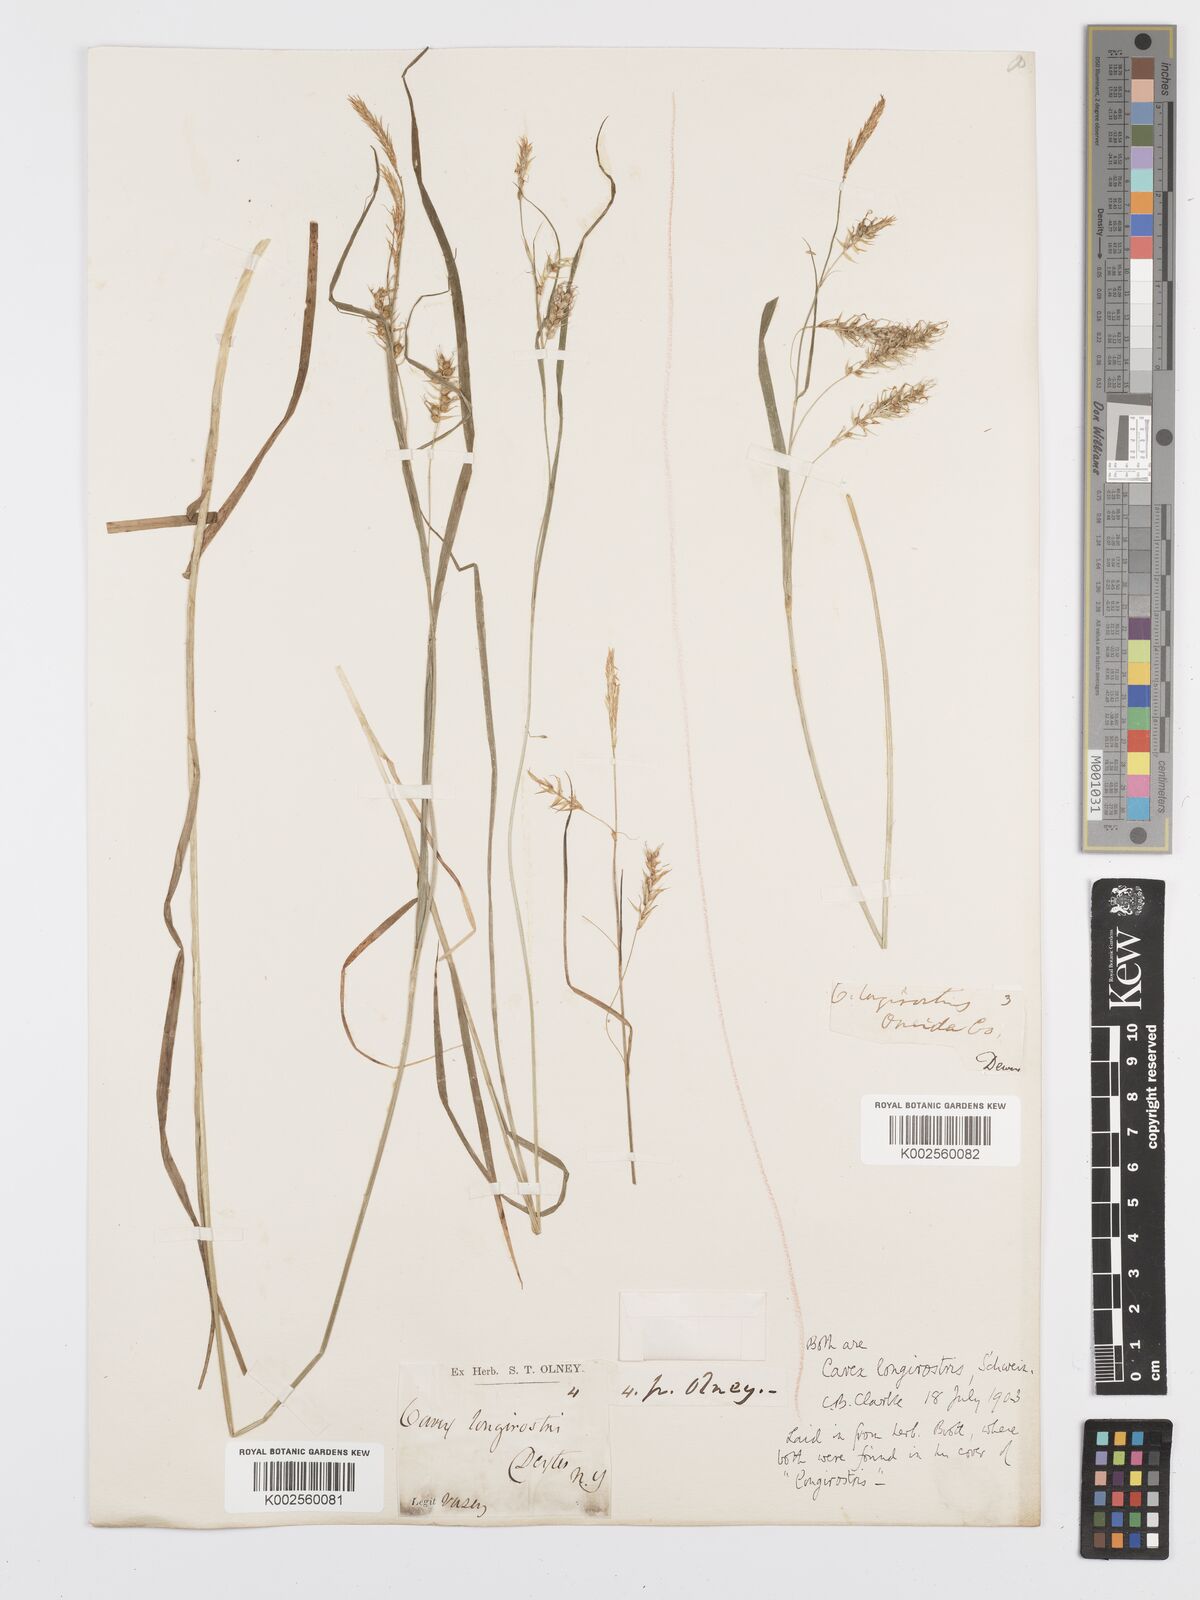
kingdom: Plantae
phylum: Tracheophyta
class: Liliopsida
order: Poales
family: Cyperaceae
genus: Carex
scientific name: Carex sprengelii
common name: Long-beaked sedge
